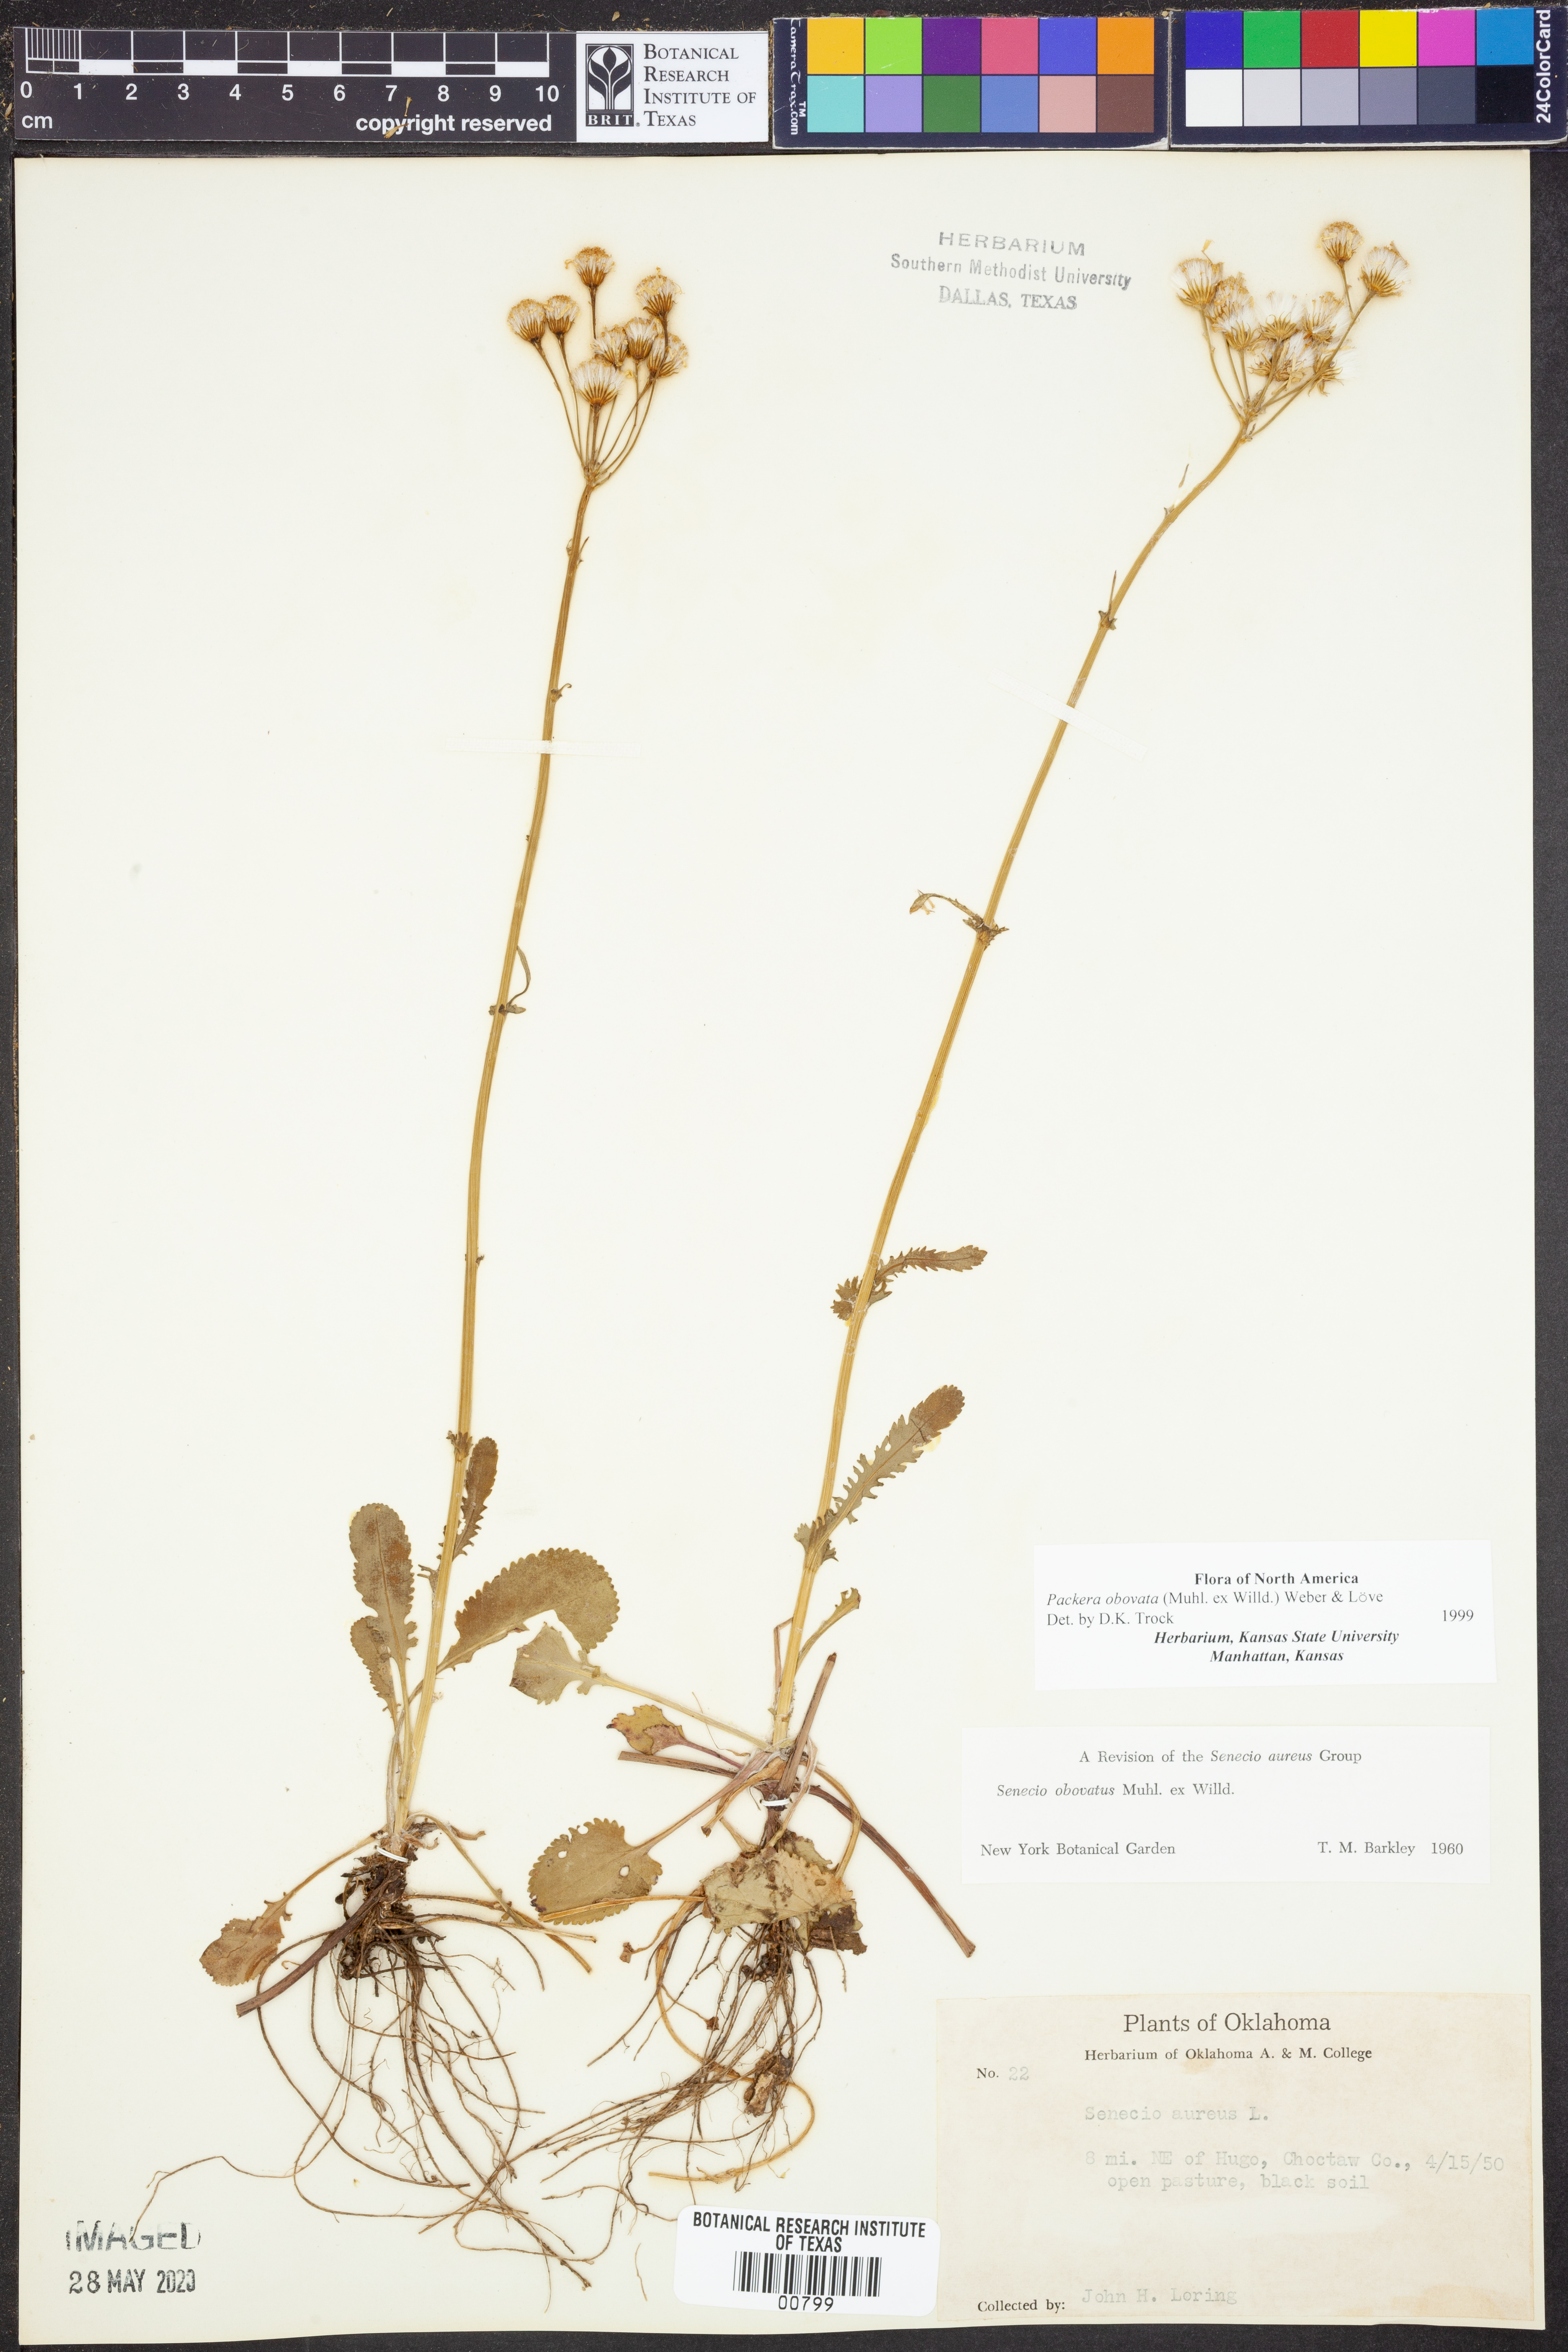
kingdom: Plantae
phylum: Tracheophyta
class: Magnoliopsida
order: Asterales
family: Asteraceae
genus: Packera
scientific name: Packera obovata
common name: Round-leaf ragwort
